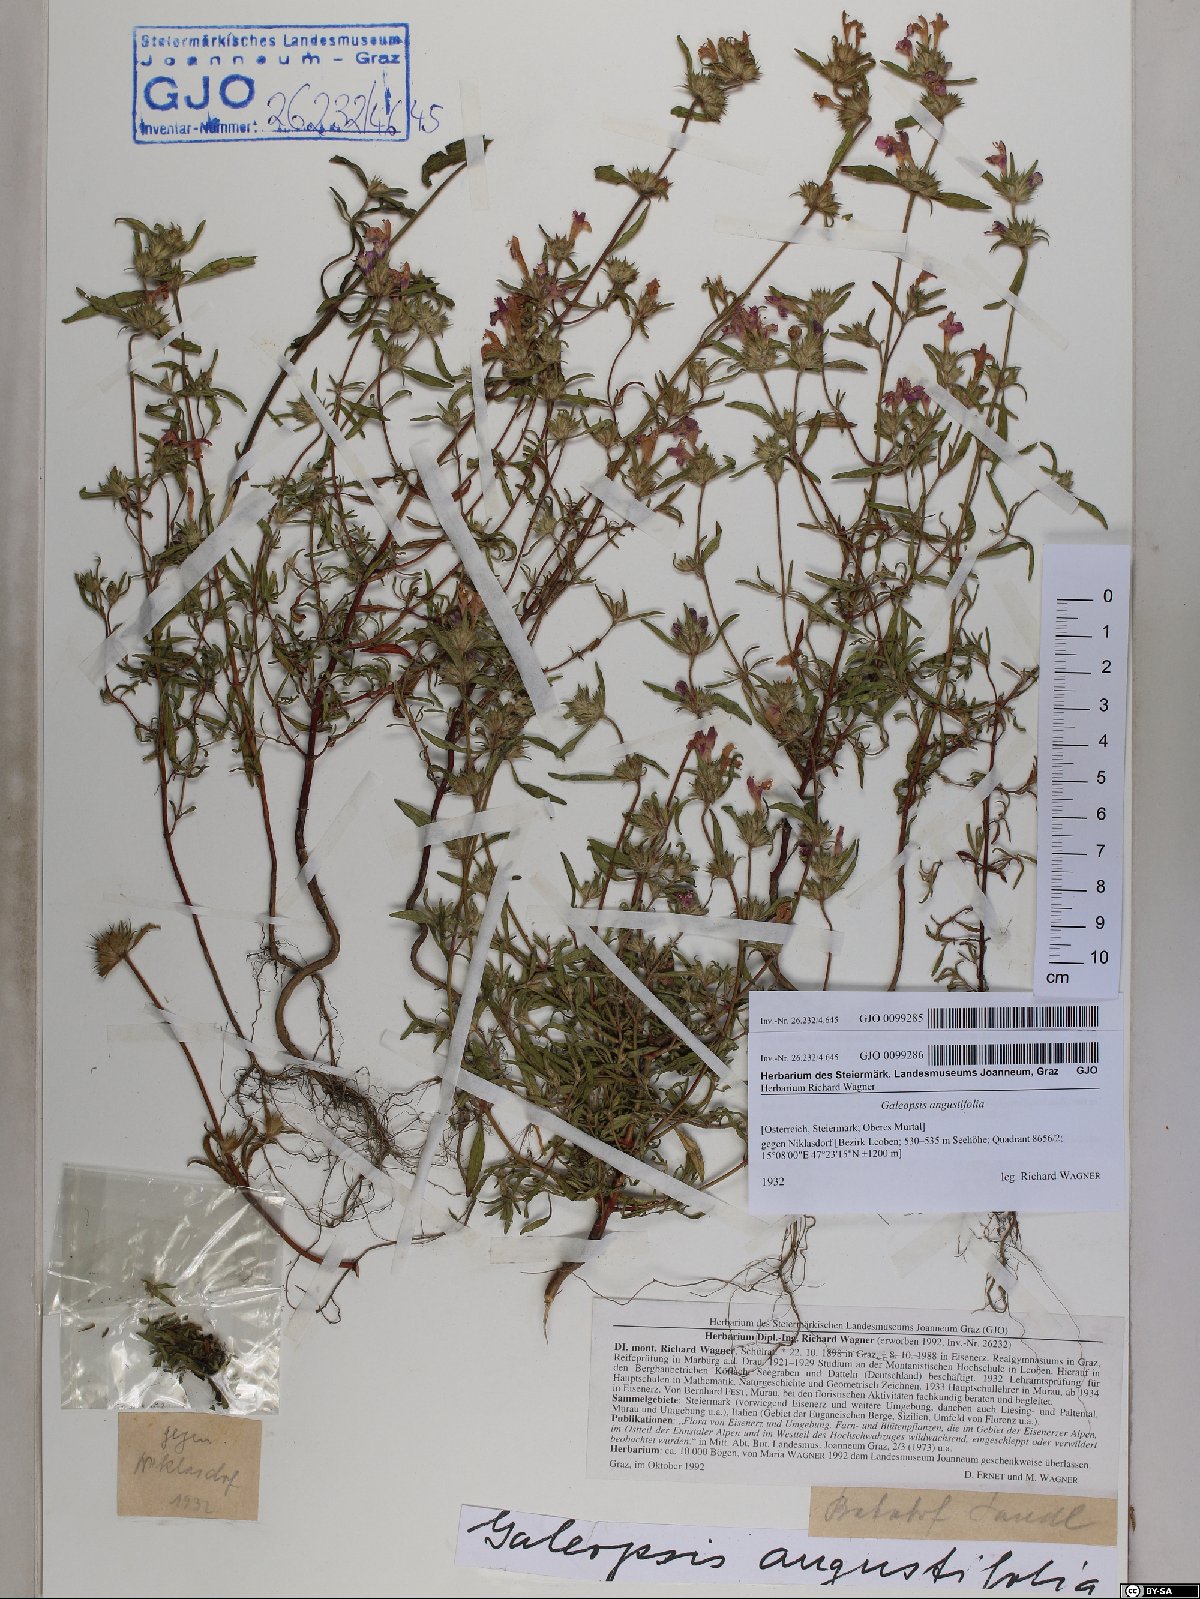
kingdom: Plantae
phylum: Tracheophyta
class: Magnoliopsida
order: Lamiales
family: Lamiaceae
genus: Galeopsis
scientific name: Galeopsis angustifolia
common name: Red hemp-nettle
